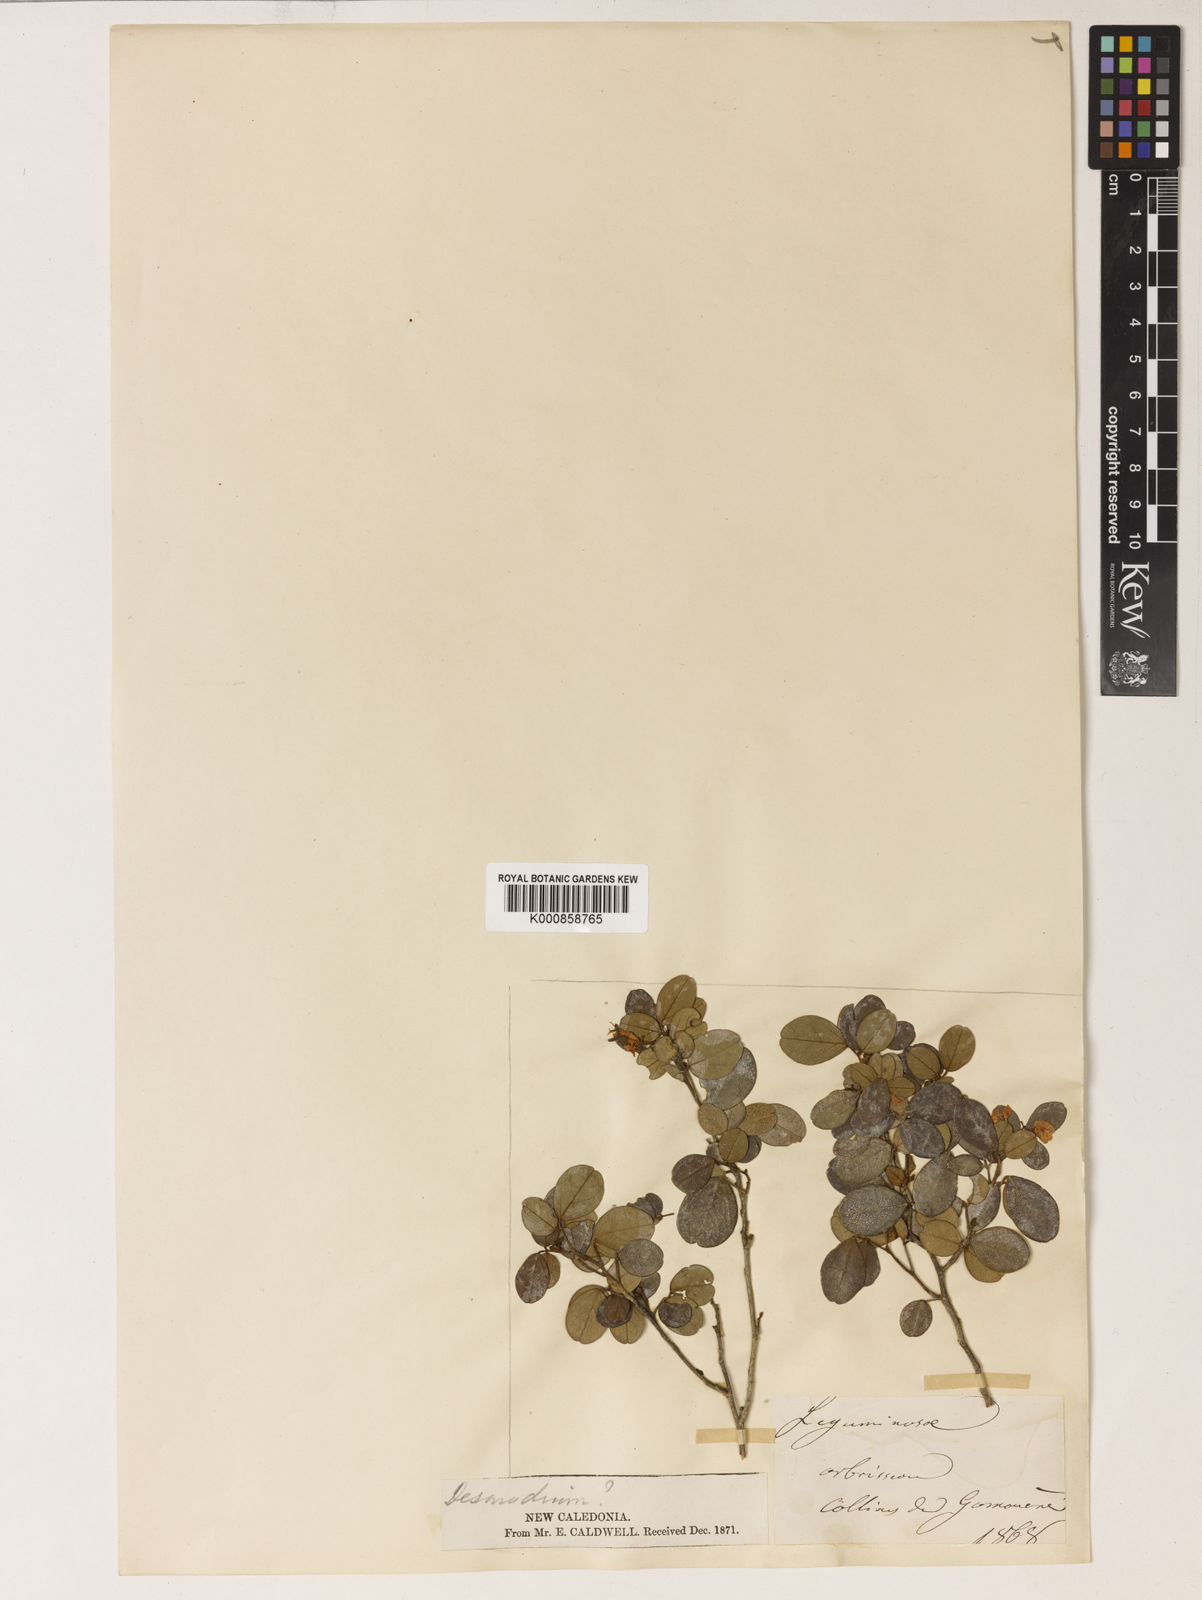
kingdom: Plantae
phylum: Tracheophyta
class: Magnoliopsida
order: Fabales
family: Fabaceae
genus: Nephrodesmus
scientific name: Nephrodesmus parvifolius
